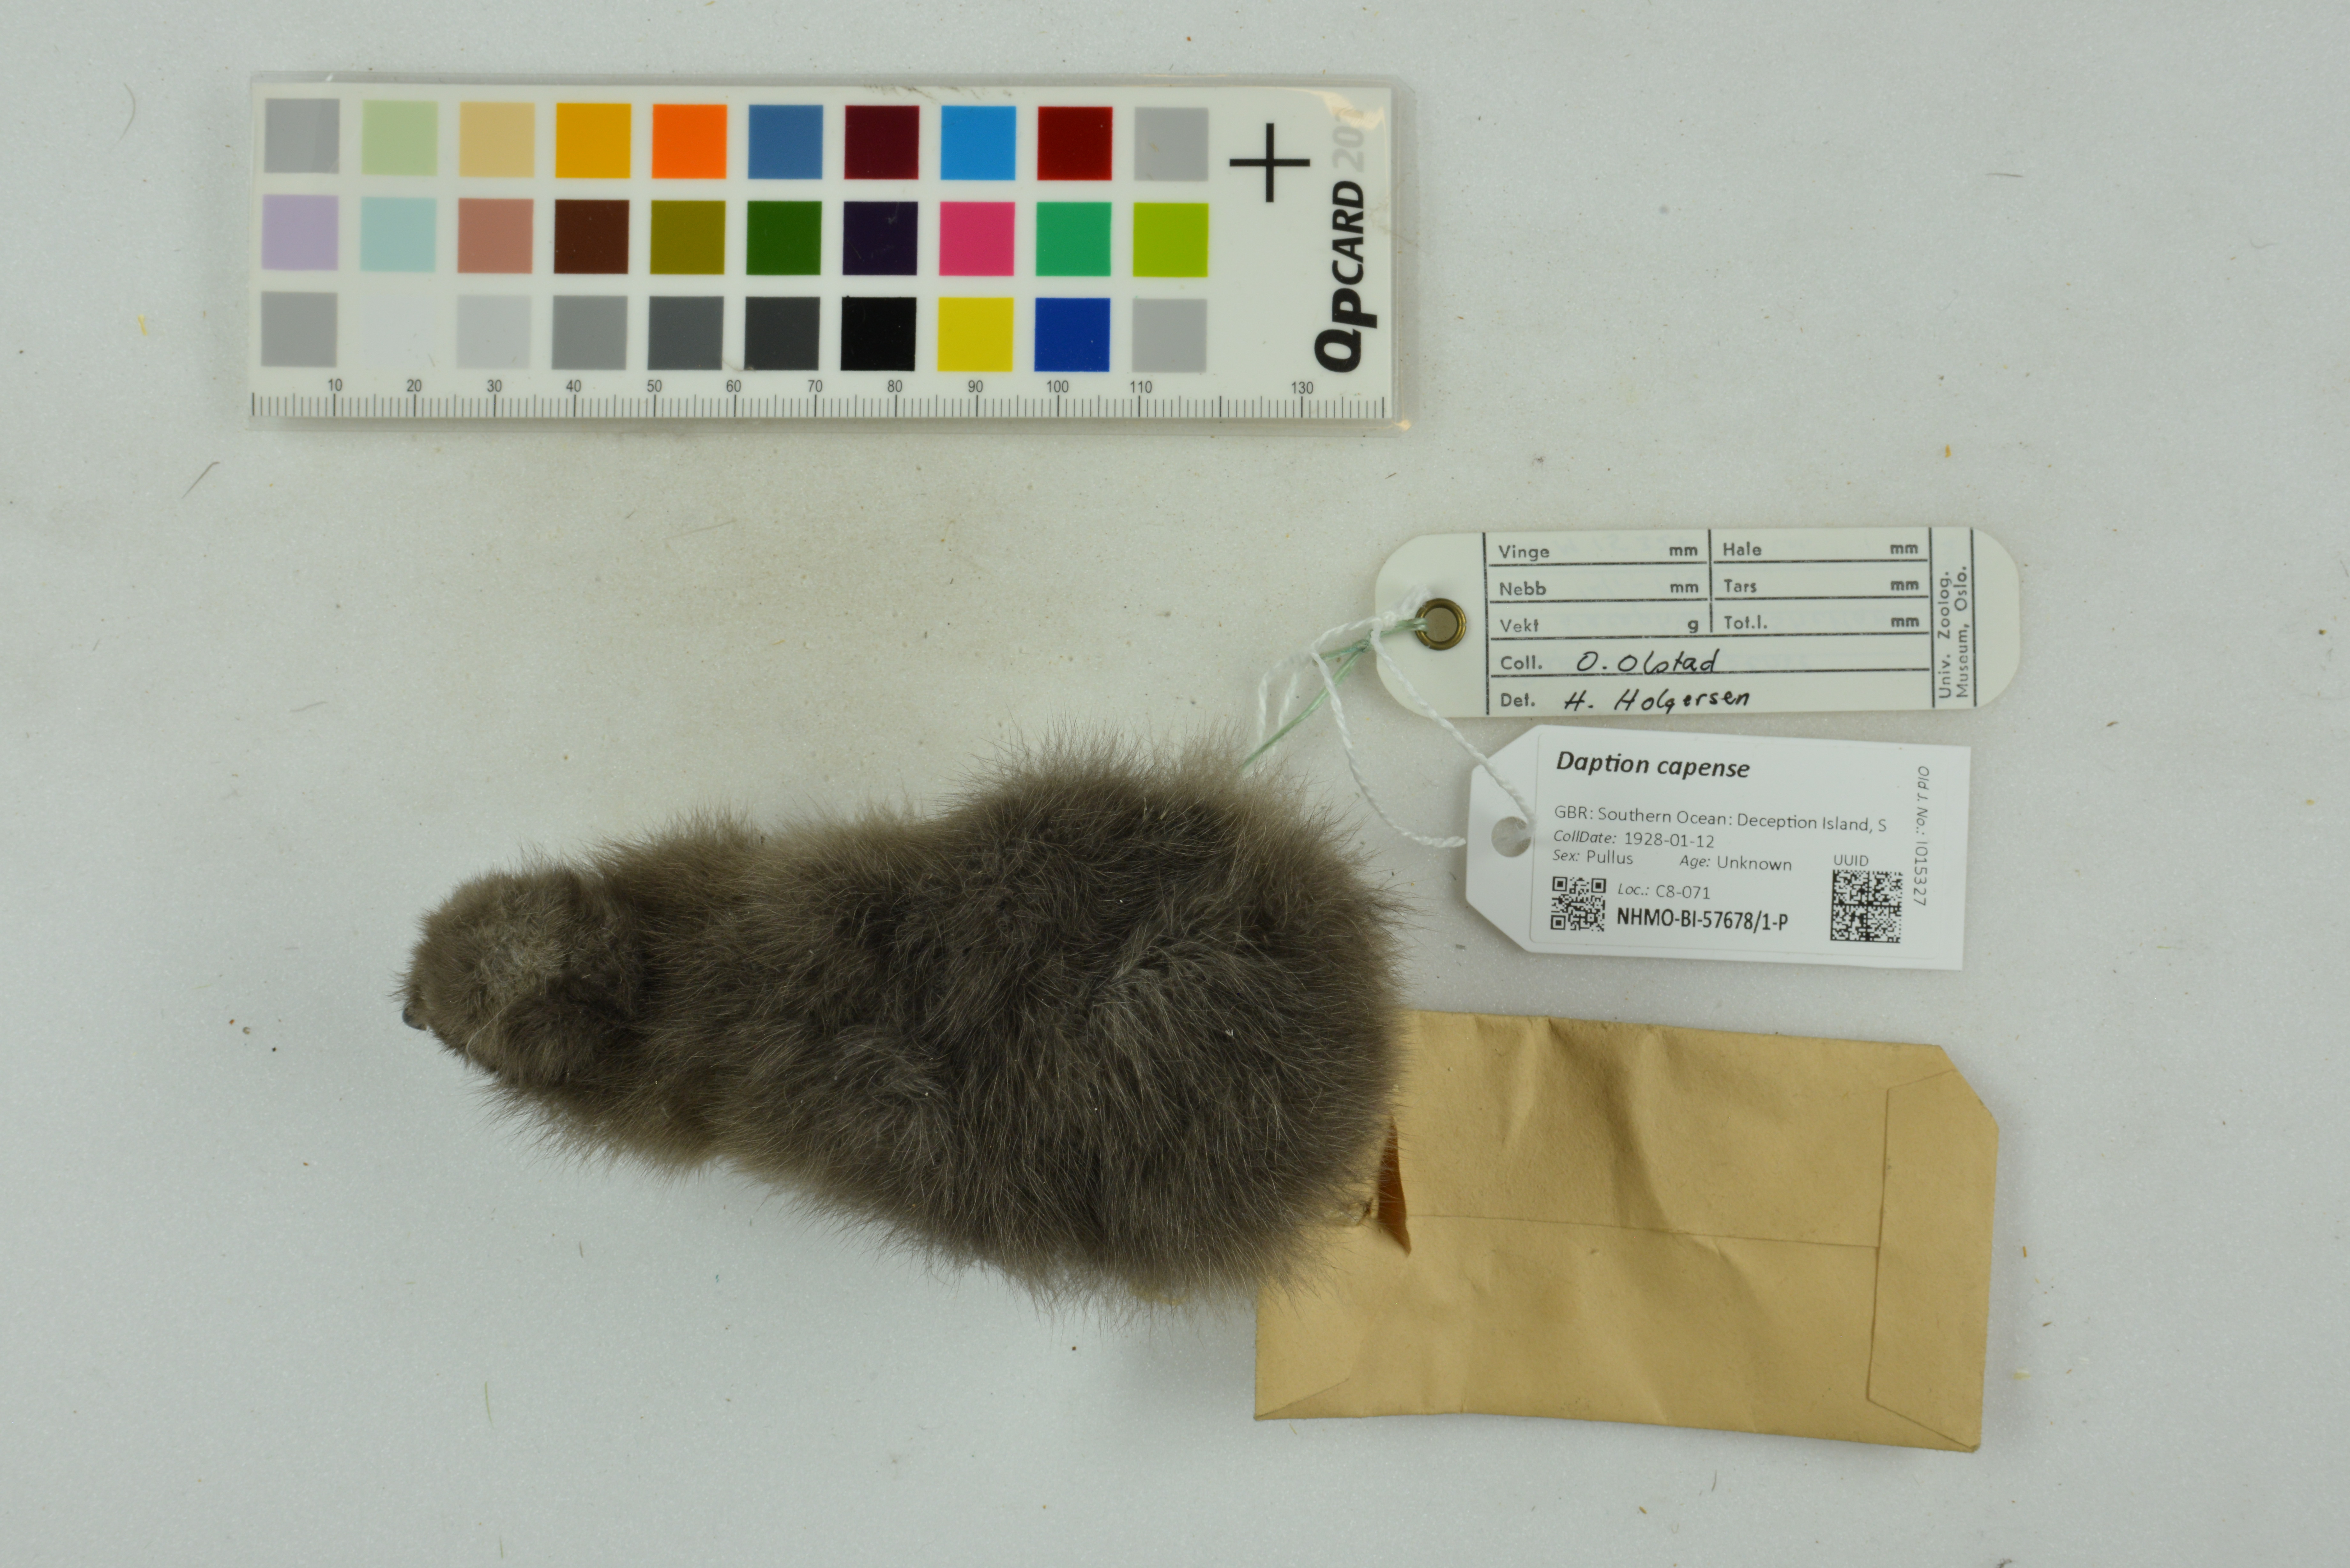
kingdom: Animalia
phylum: Chordata
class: Aves
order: Procellariiformes
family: Procellariidae
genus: Daption
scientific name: Daption capense
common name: Cape petrel
